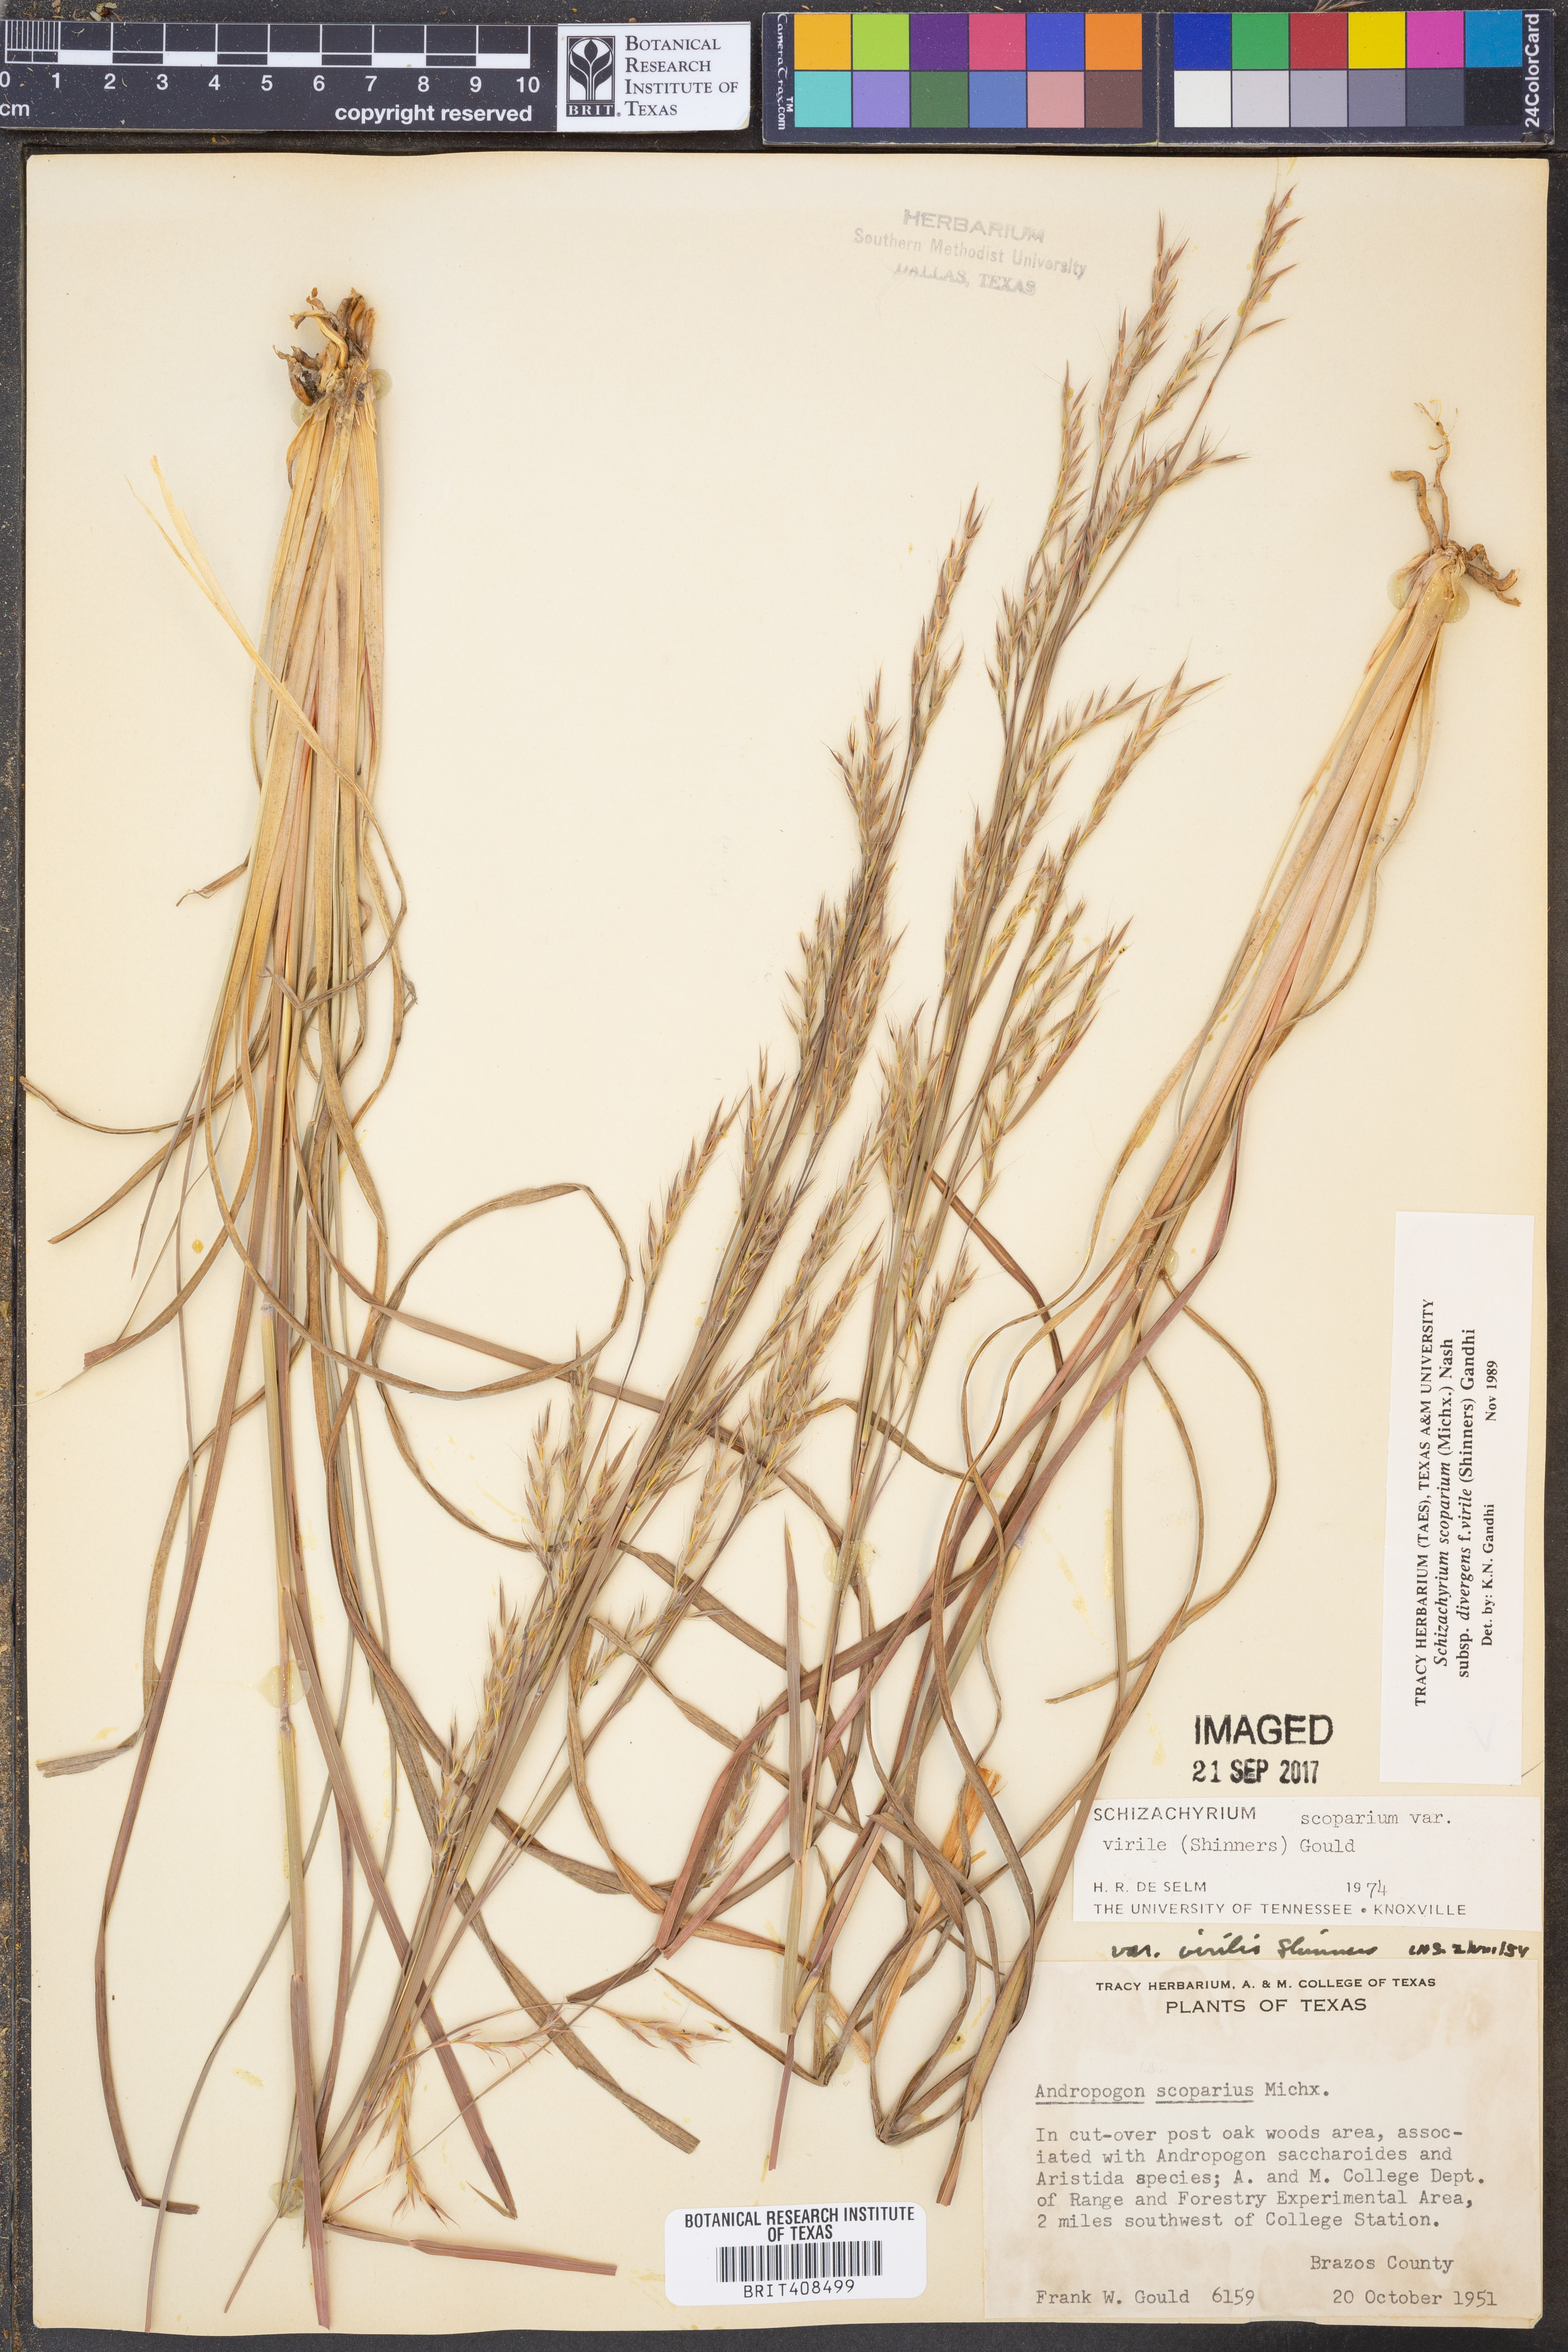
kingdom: Plantae
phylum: Tracheophyta
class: Liliopsida
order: Poales
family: Poaceae
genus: Schizachyrium
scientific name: Schizachyrium scoparium
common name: Little bluestem
